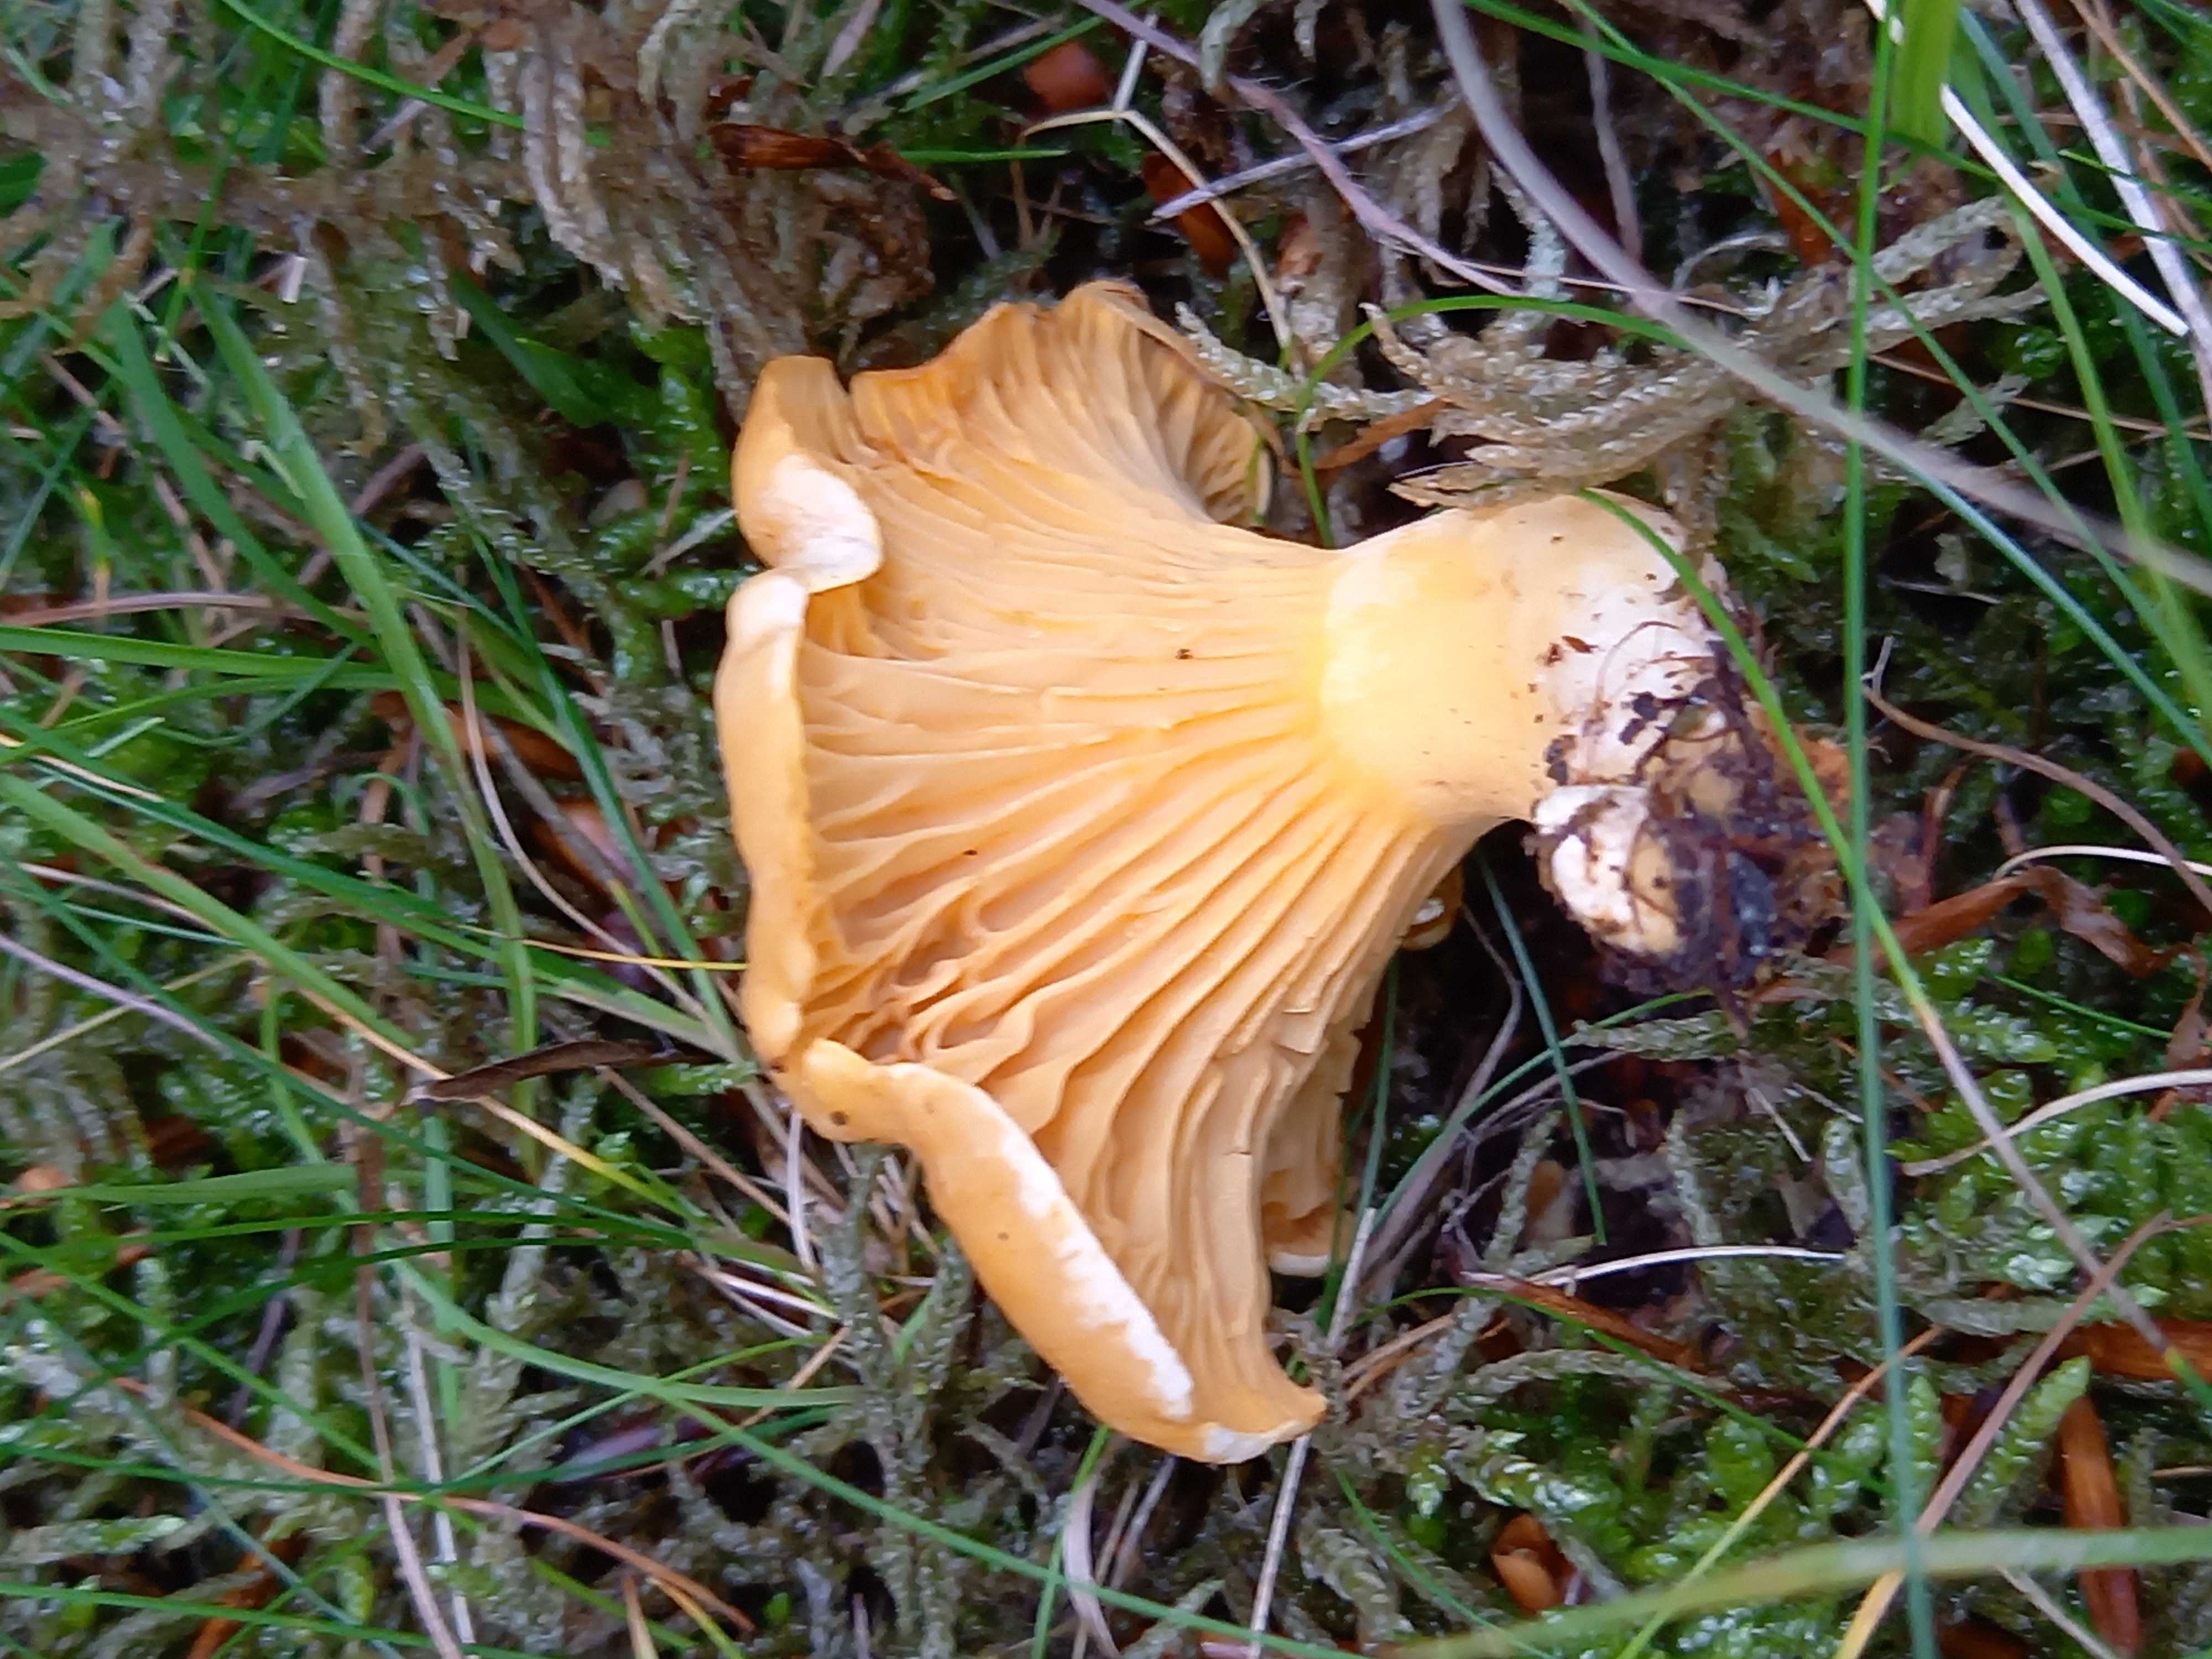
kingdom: Fungi
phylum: Basidiomycota
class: Agaricomycetes
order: Cantharellales
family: Hydnaceae
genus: Cantharellus
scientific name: Cantharellus cibarius
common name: almindelig kantarel
